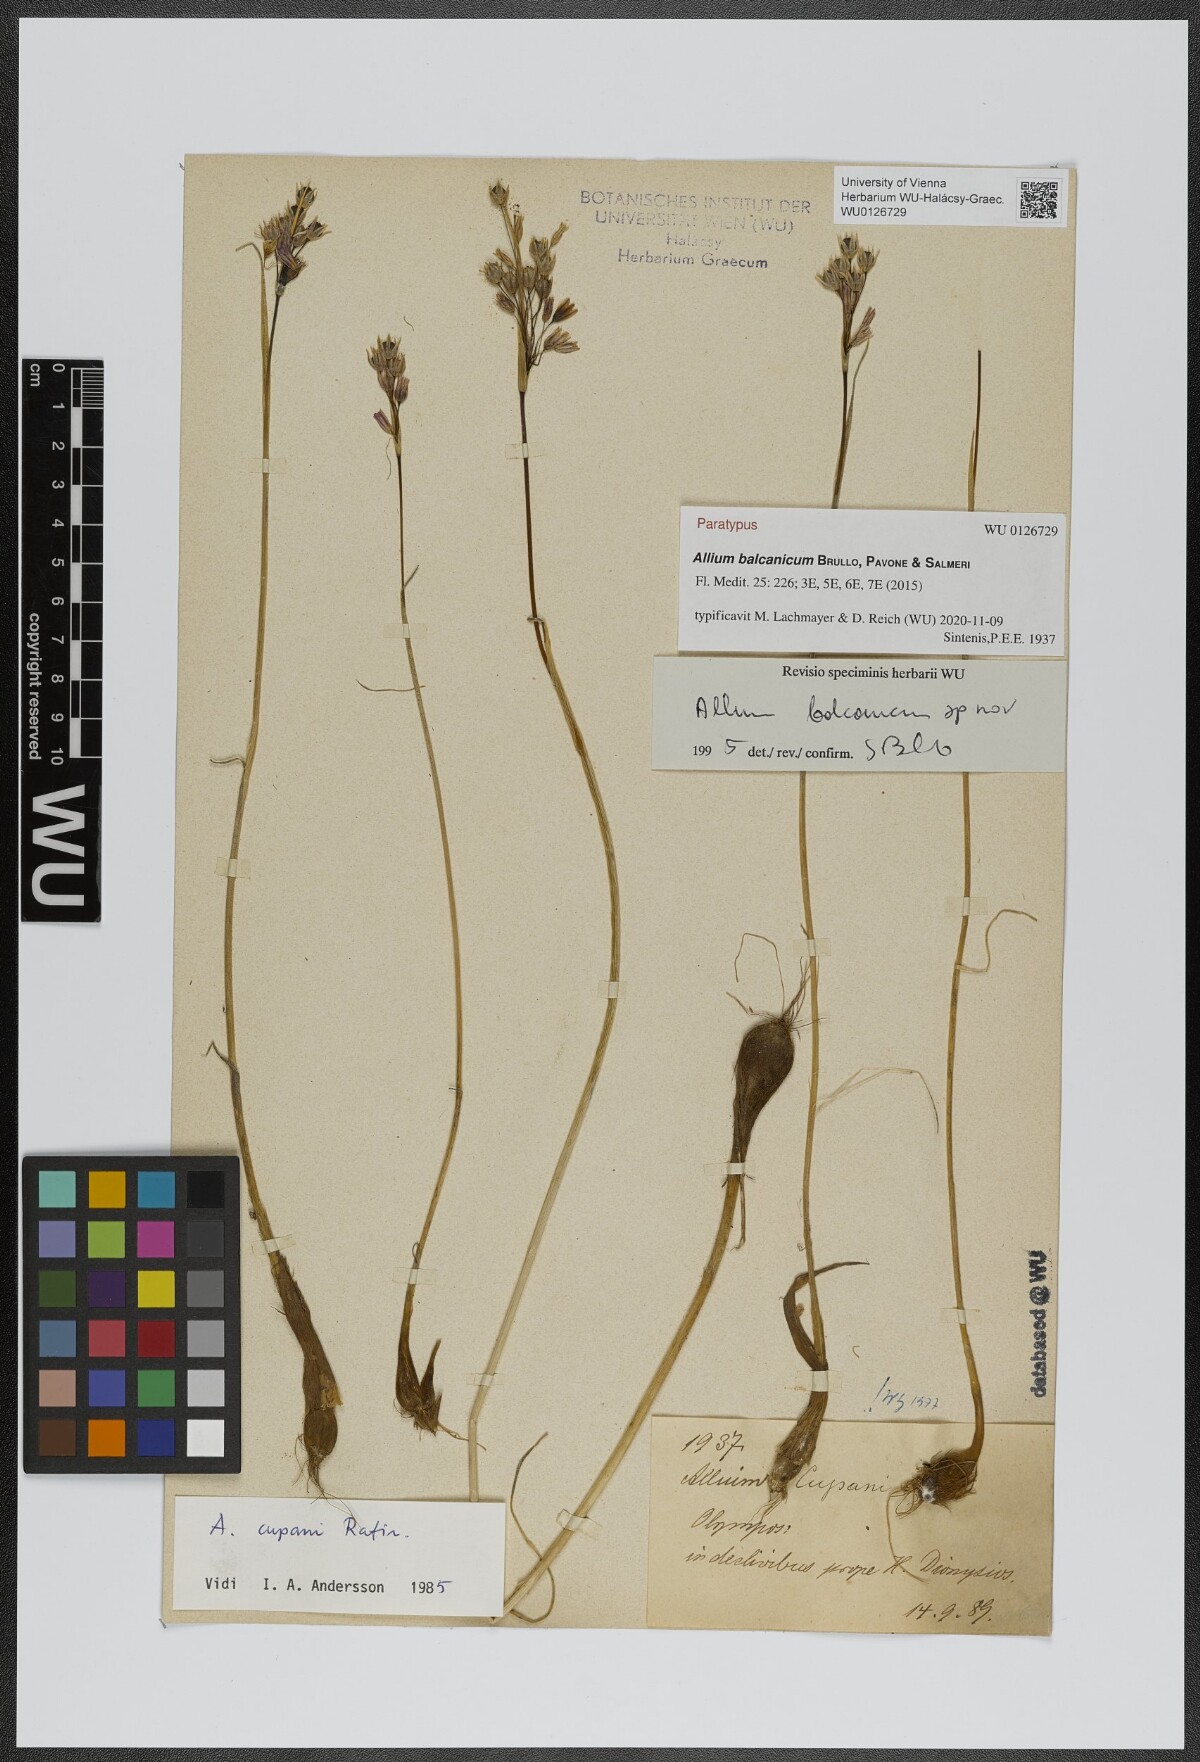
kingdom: Plantae
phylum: Tracheophyta
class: Liliopsida
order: Asparagales
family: Amaryllidaceae
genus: Allium
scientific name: Allium balcanicum
